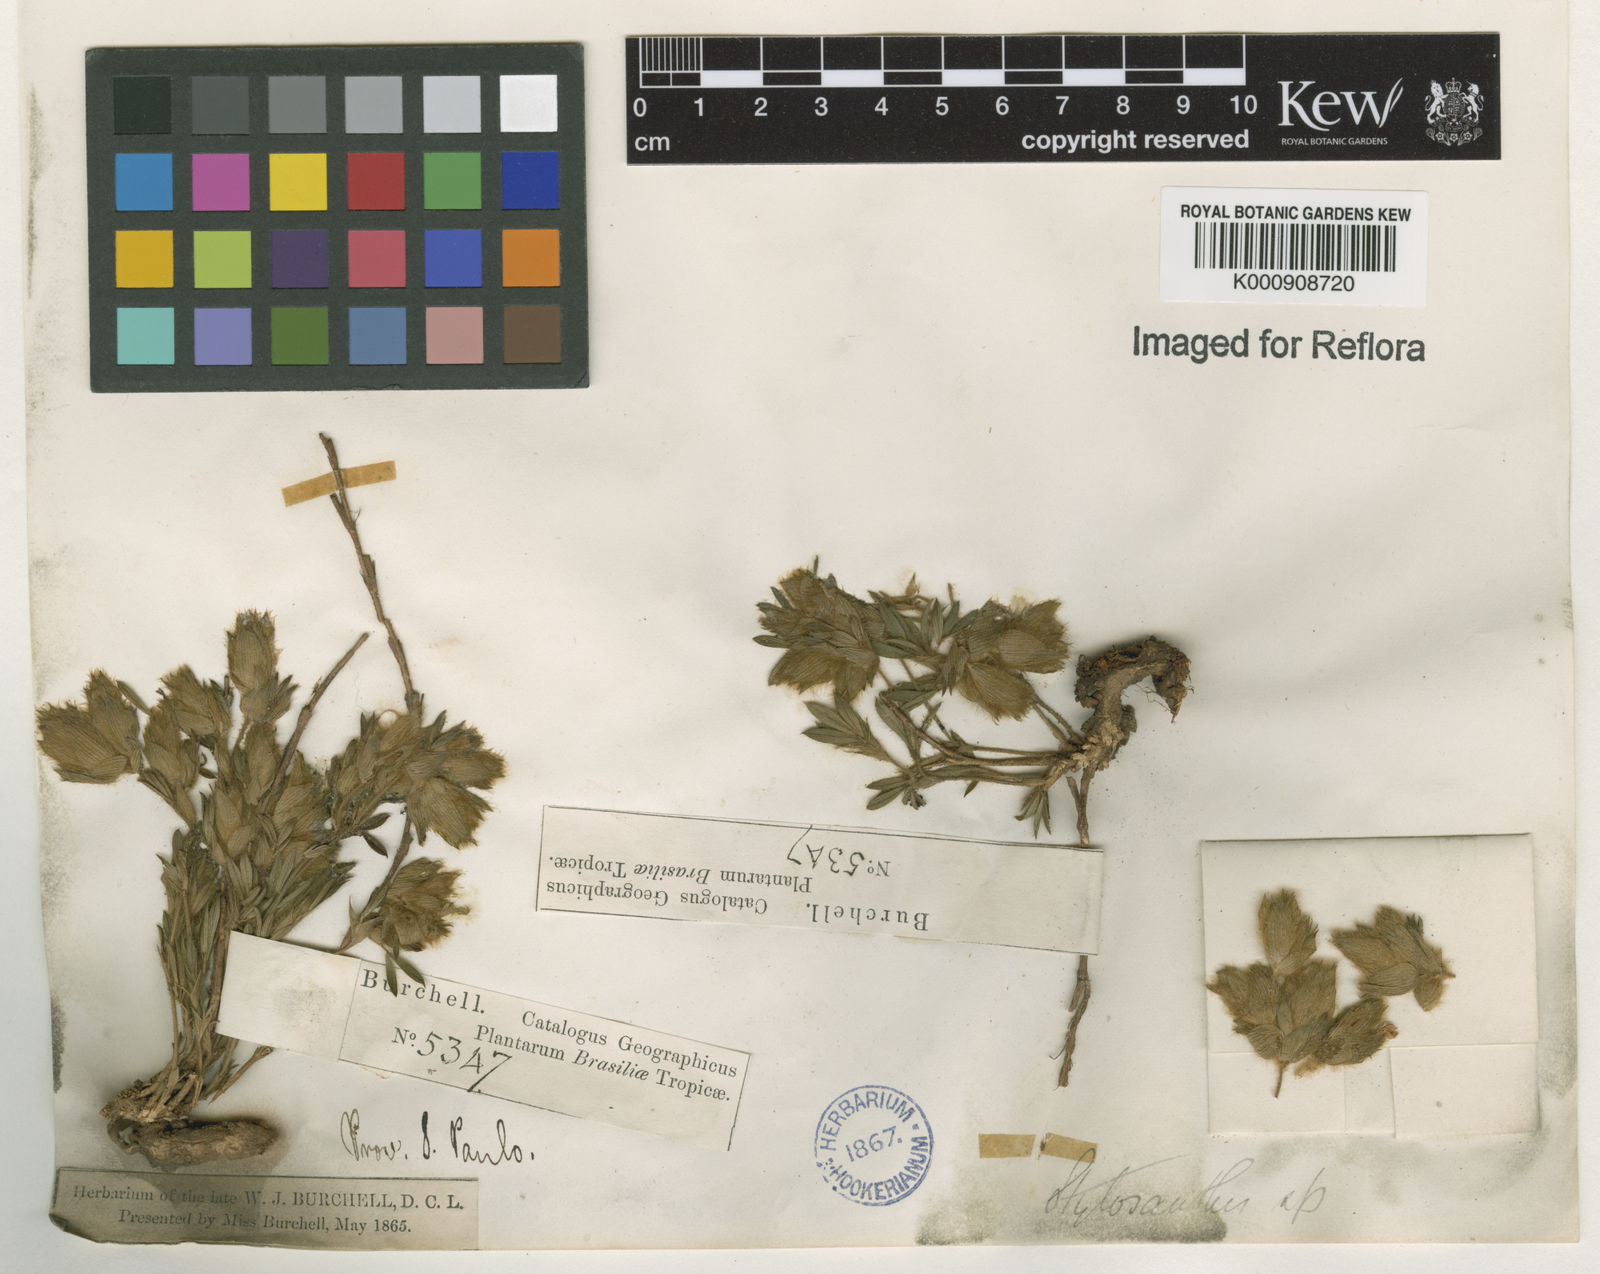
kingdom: Plantae
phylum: Tracheophyta
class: Magnoliopsida
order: Fabales
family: Fabaceae
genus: Stylosanthes
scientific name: Stylosanthes bracteata
